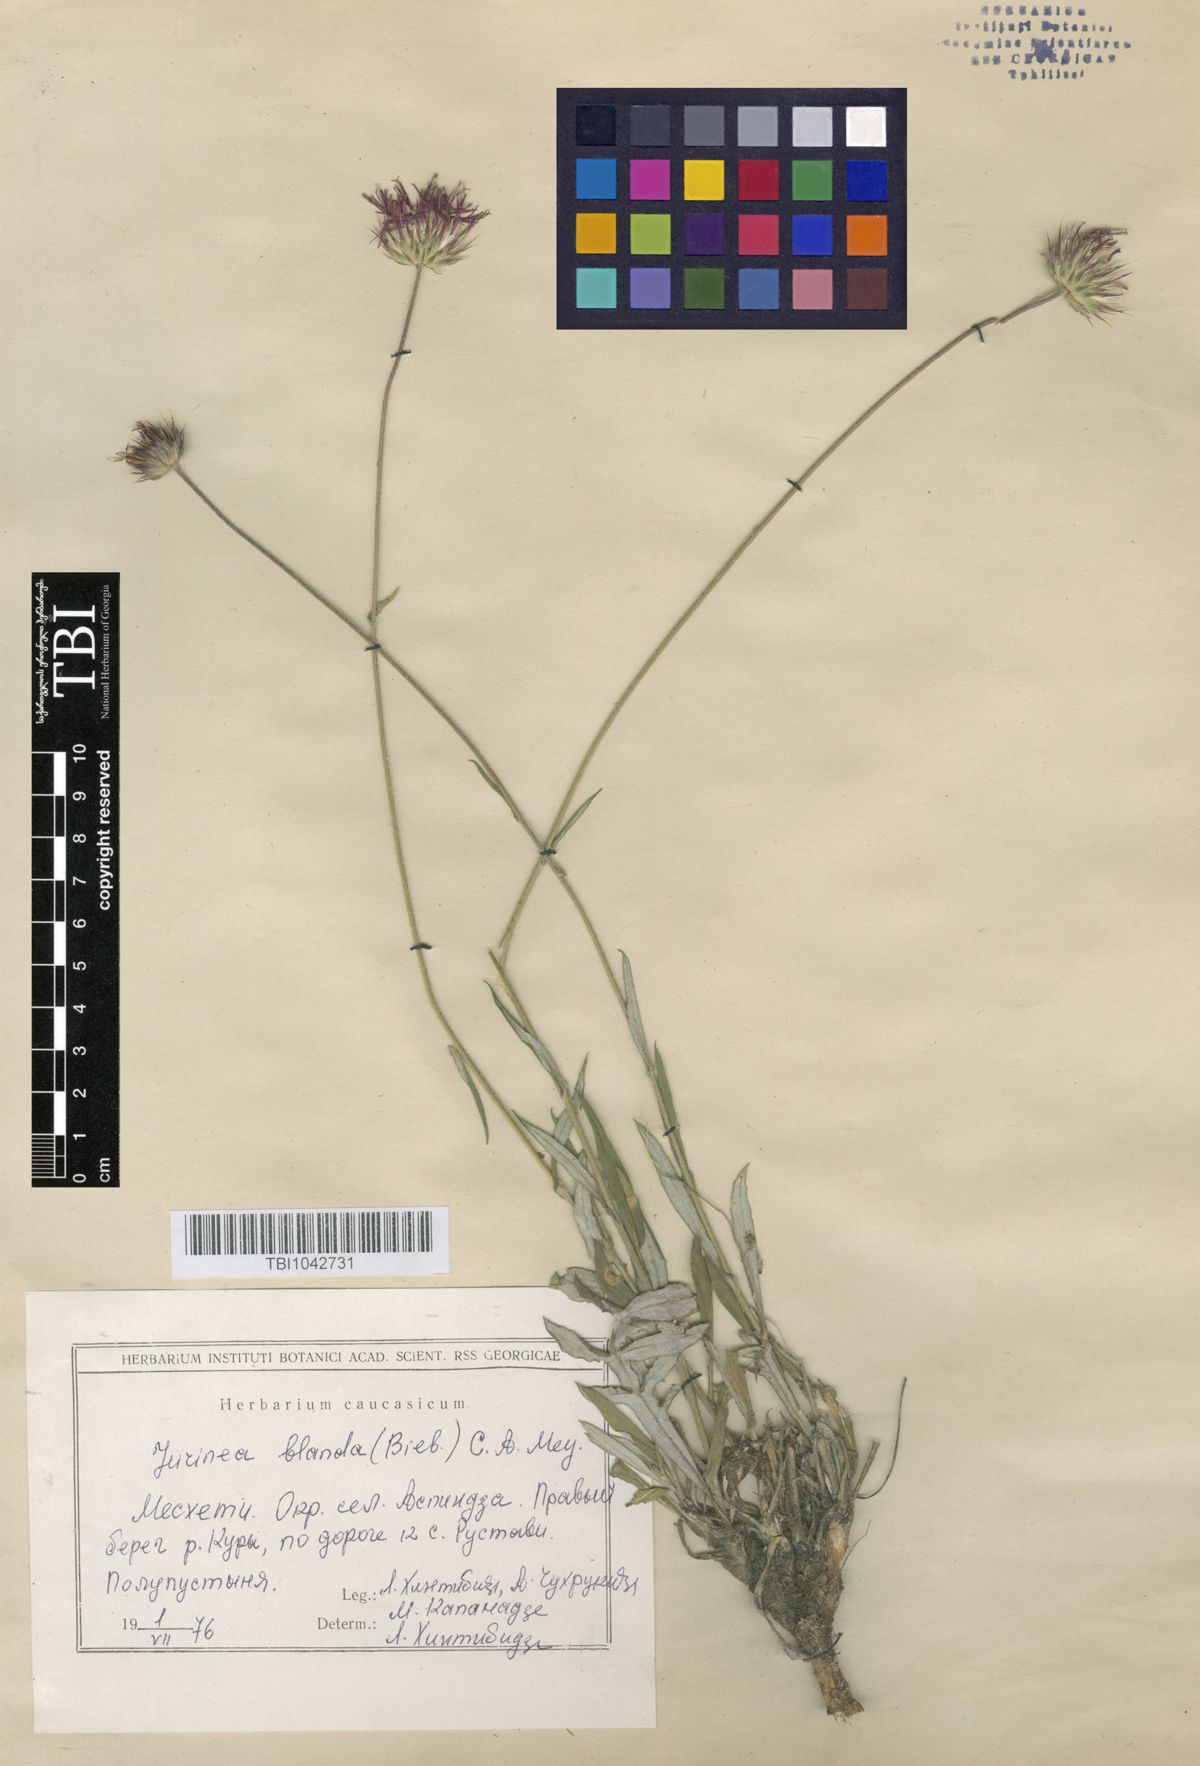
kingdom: Plantae
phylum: Tracheophyta
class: Magnoliopsida
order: Asterales
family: Asteraceae
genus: Jurinea
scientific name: Jurinea blanda
